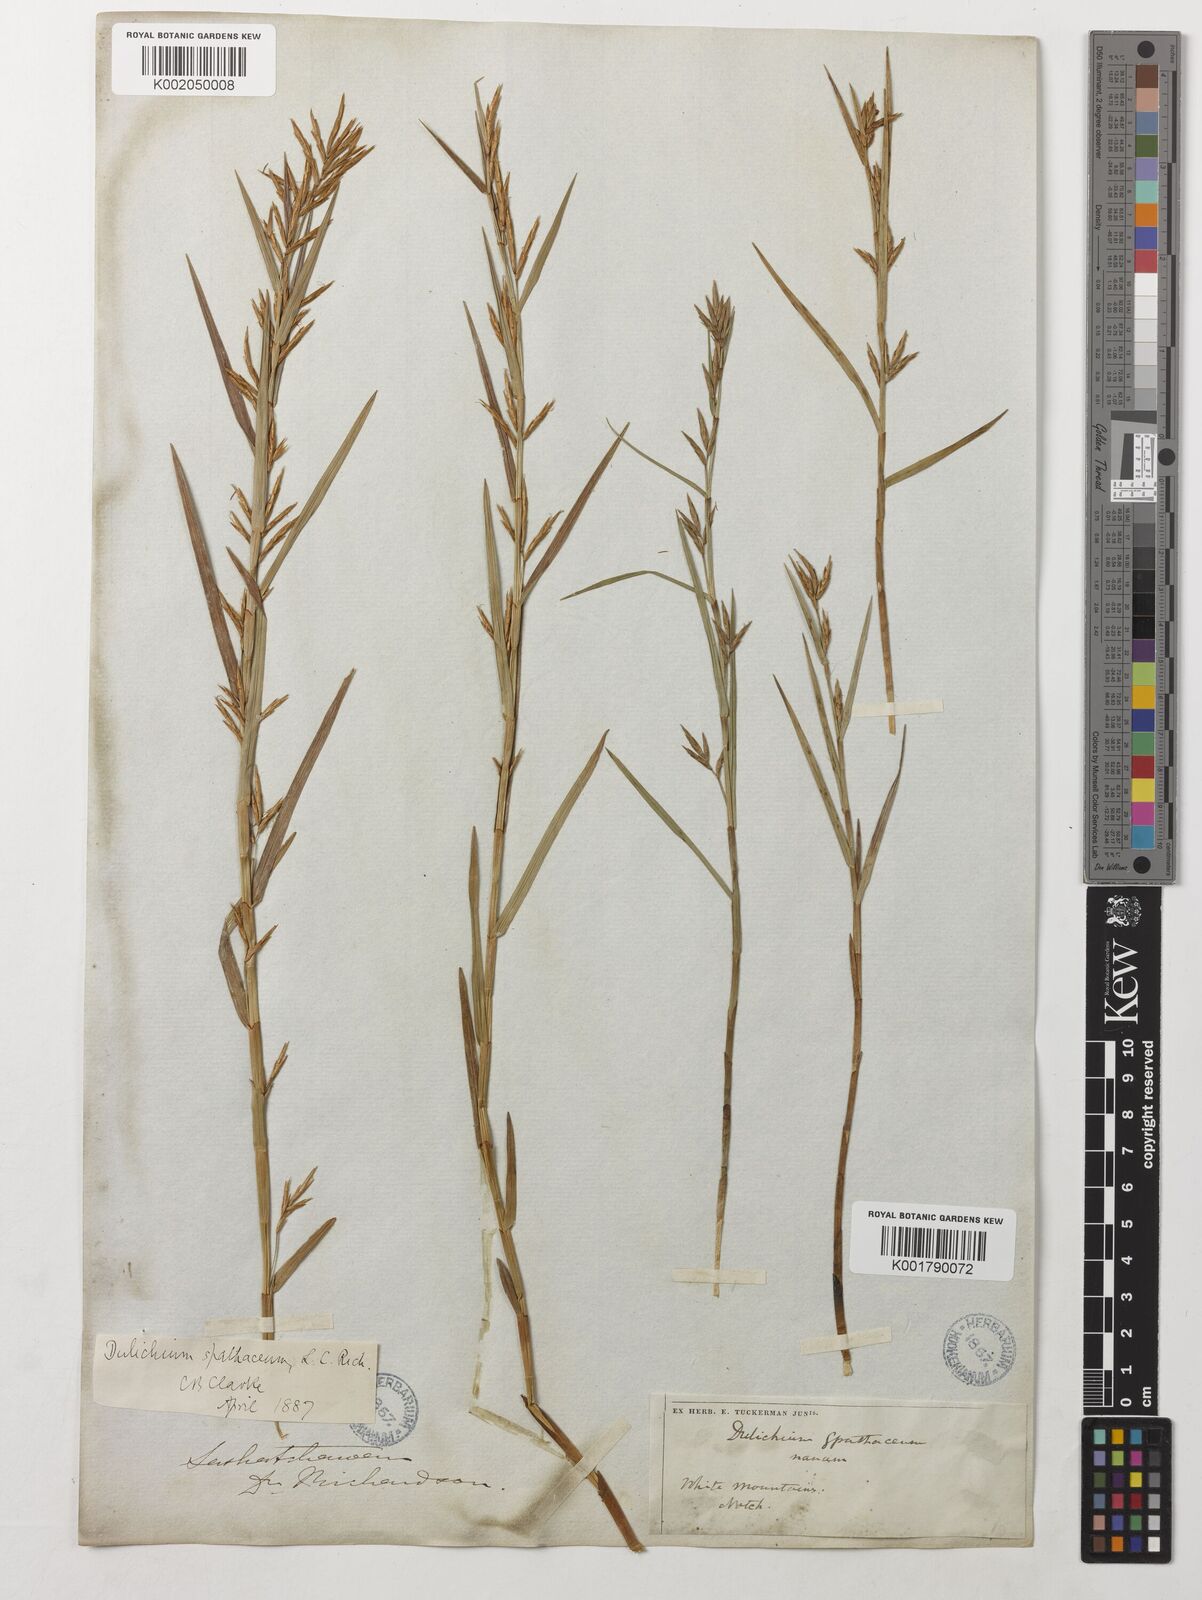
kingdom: Plantae
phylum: Tracheophyta
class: Liliopsida
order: Poales
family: Cyperaceae
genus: Dulichium
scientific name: Dulichium arundinaceum
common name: Three-way sedge
